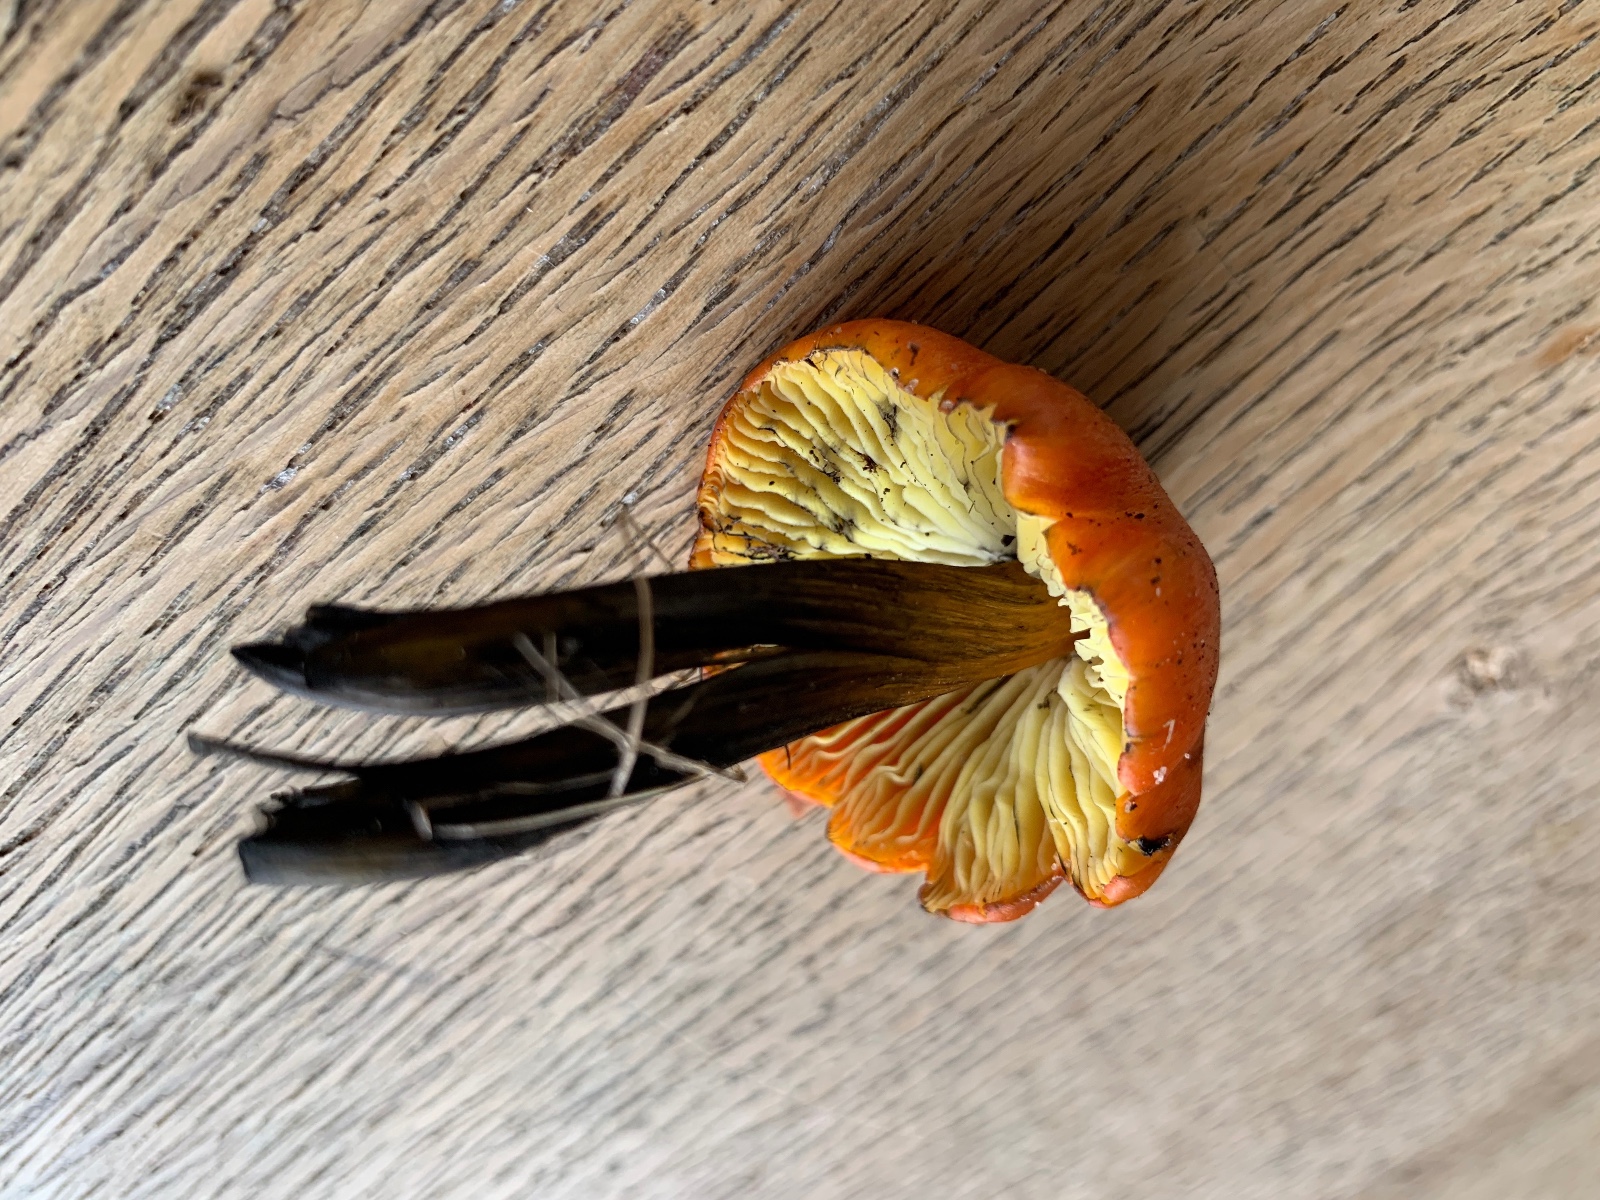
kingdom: Fungi
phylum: Basidiomycota
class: Agaricomycetes
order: Agaricales
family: Hygrophoraceae
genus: Hygrocybe
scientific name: Hygrocybe conica
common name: kegle-vokshat
